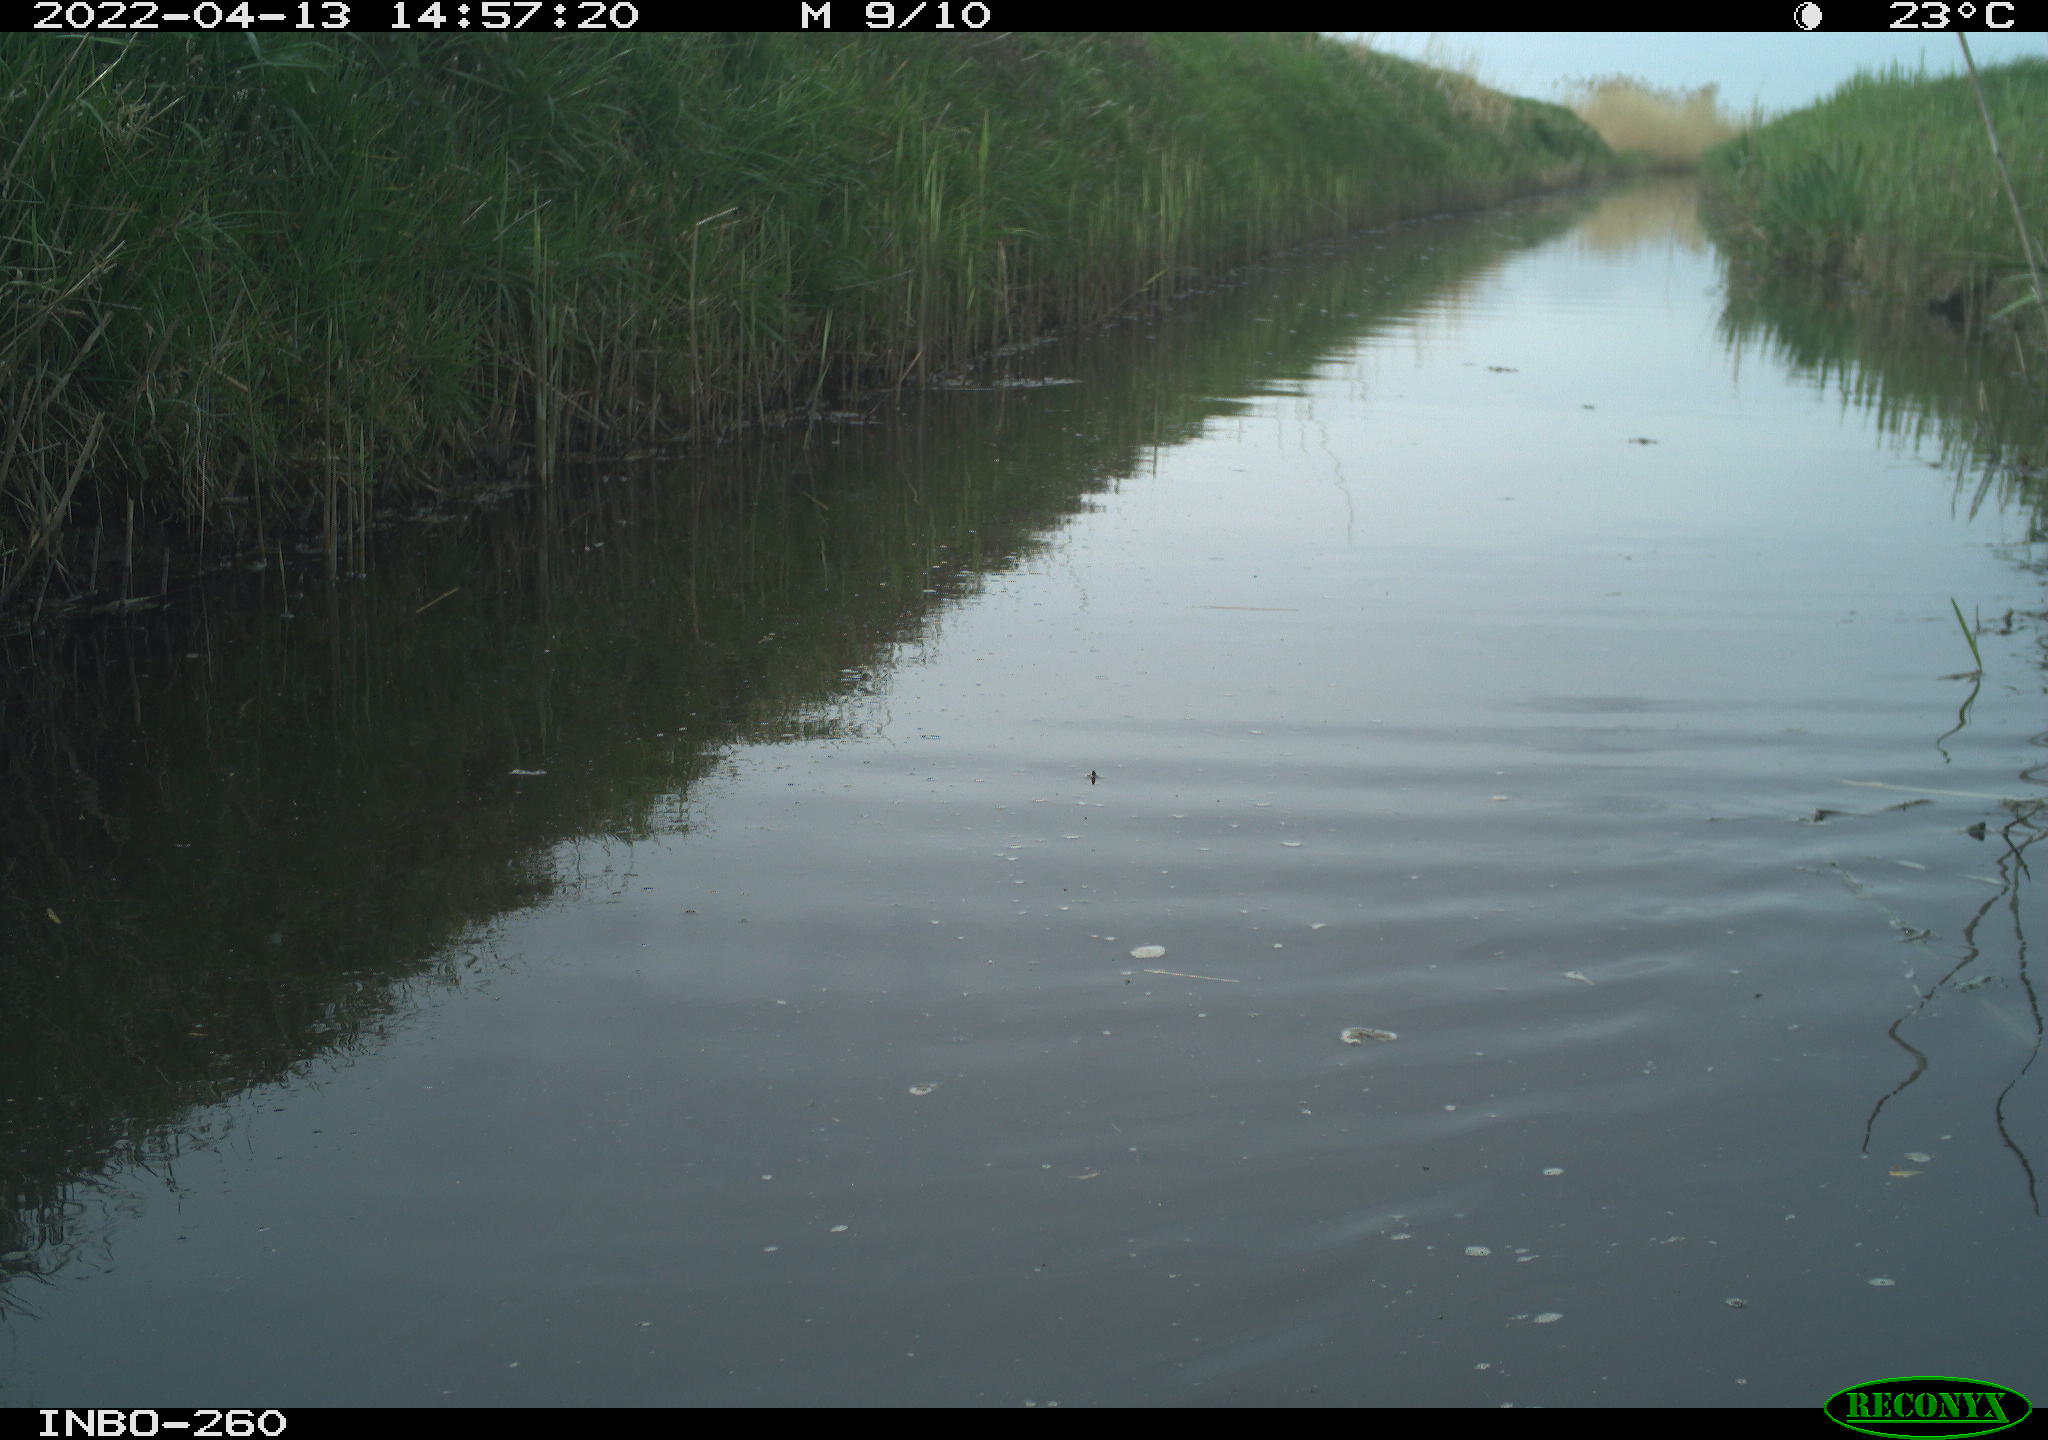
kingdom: Animalia
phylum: Chordata
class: Aves
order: Gruiformes
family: Rallidae
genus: Fulica
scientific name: Fulica atra
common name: Eurasian coot
